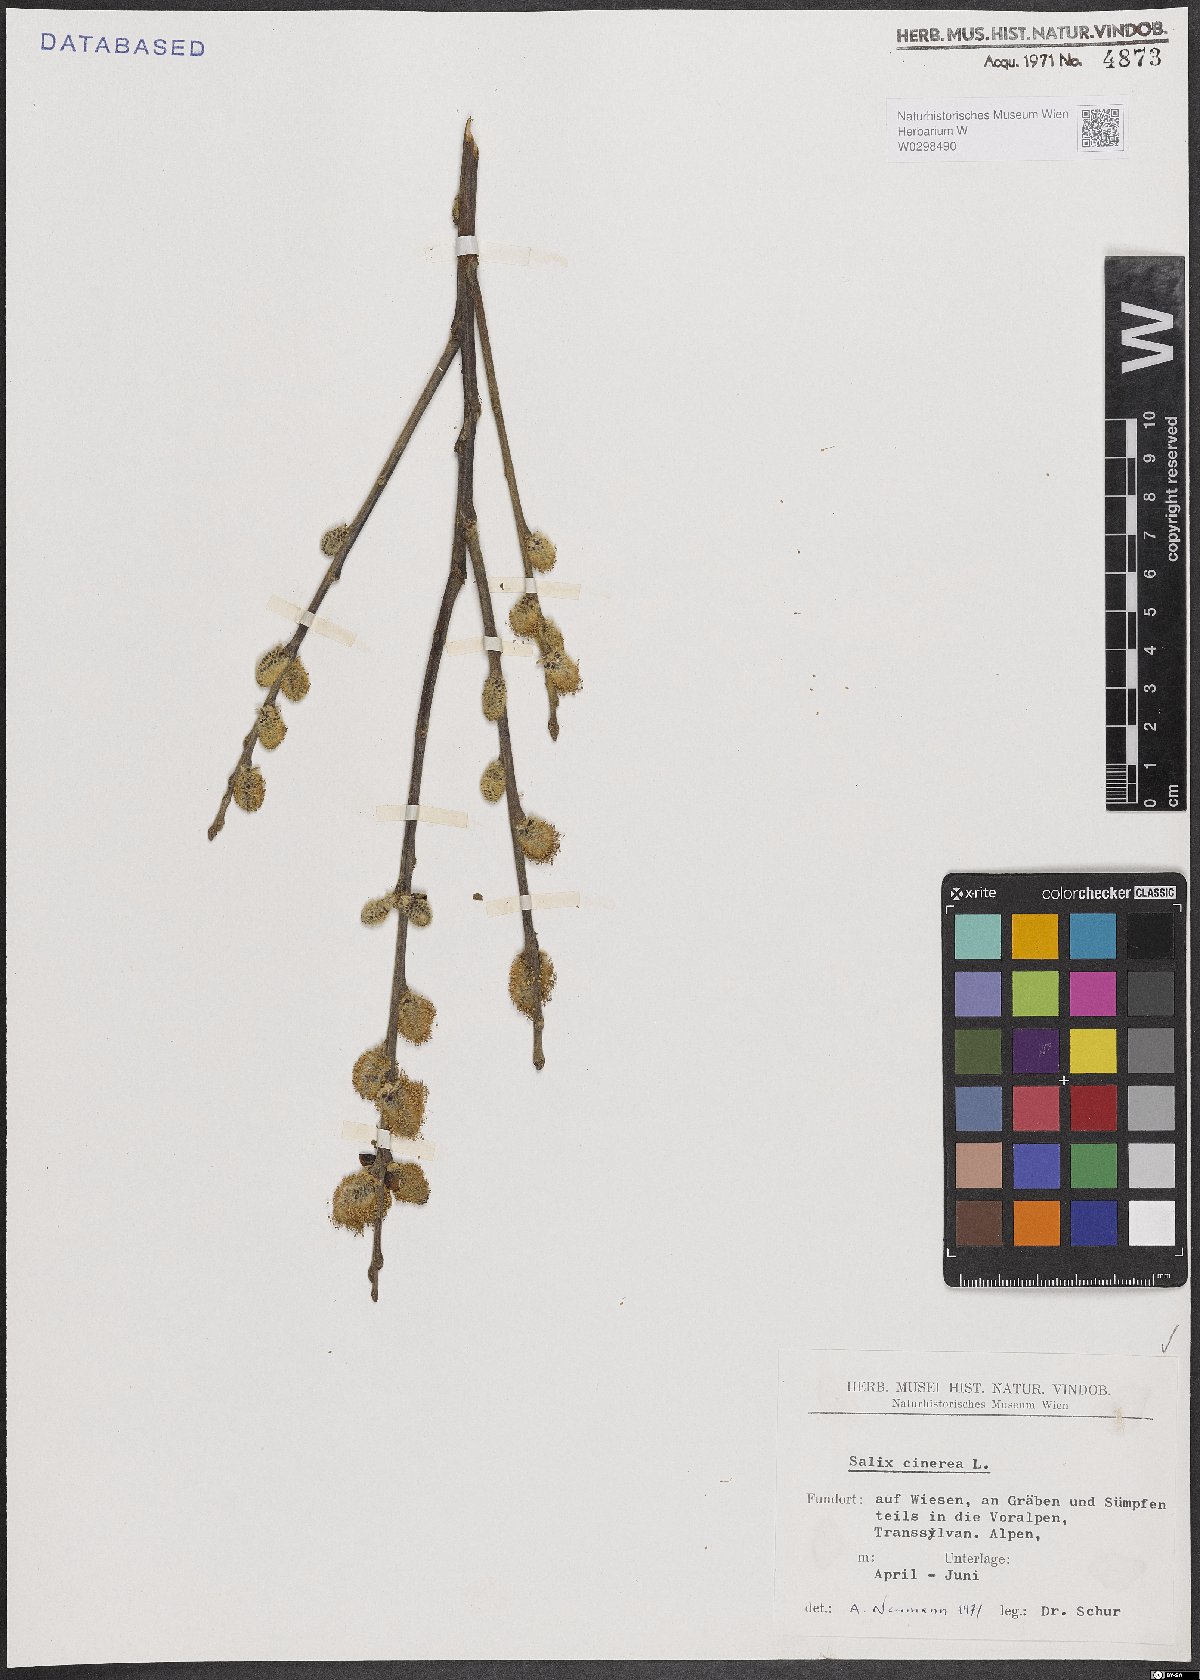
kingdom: Plantae
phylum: Tracheophyta
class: Magnoliopsida
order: Malpighiales
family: Salicaceae
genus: Salix
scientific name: Salix cinerea
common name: Common sallow
